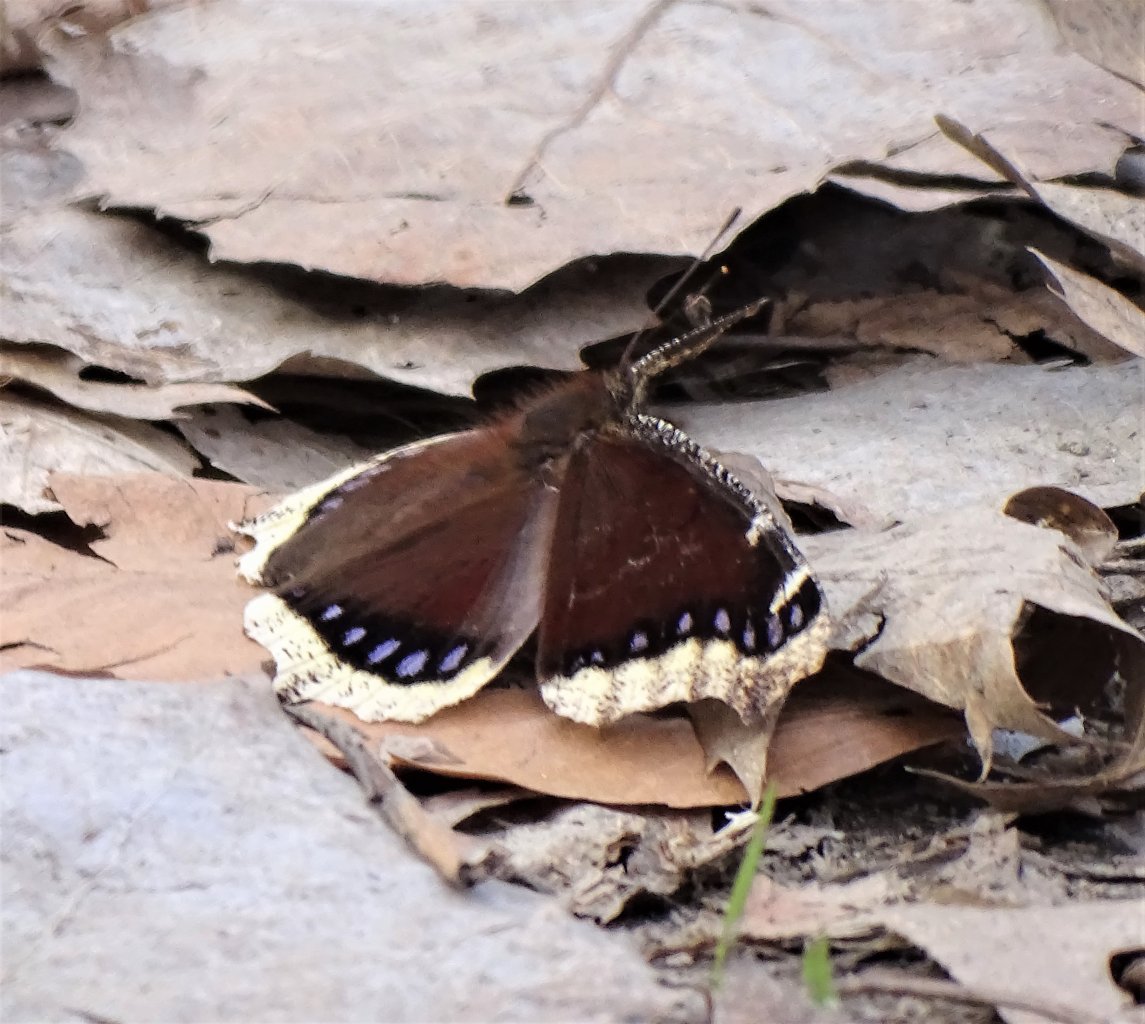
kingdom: Animalia
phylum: Arthropoda
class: Insecta
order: Lepidoptera
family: Nymphalidae
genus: Nymphalis
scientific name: Nymphalis antiopa
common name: Mourning Cloak
